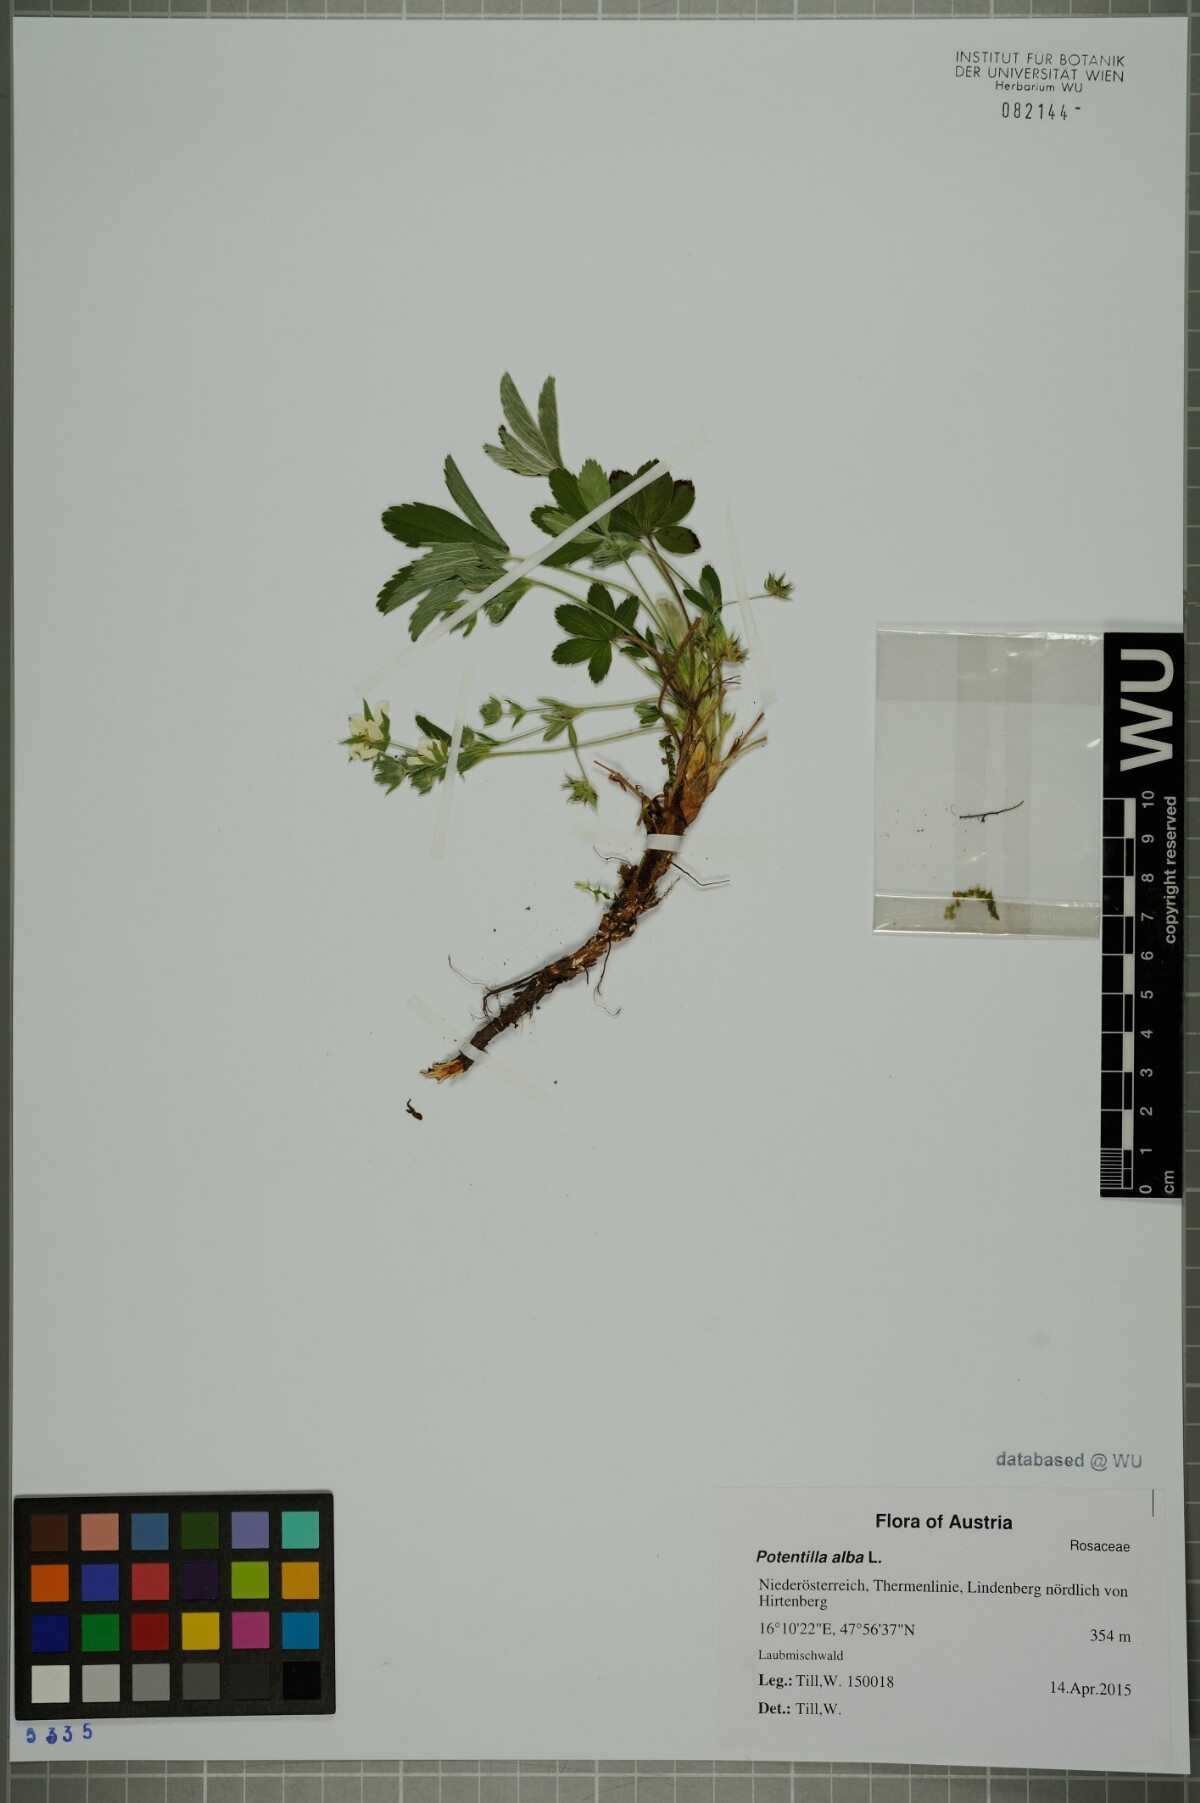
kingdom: Plantae
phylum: Tracheophyta
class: Magnoliopsida
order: Rosales
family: Rosaceae
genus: Potentilla
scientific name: Potentilla alba
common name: White cinquefoil
